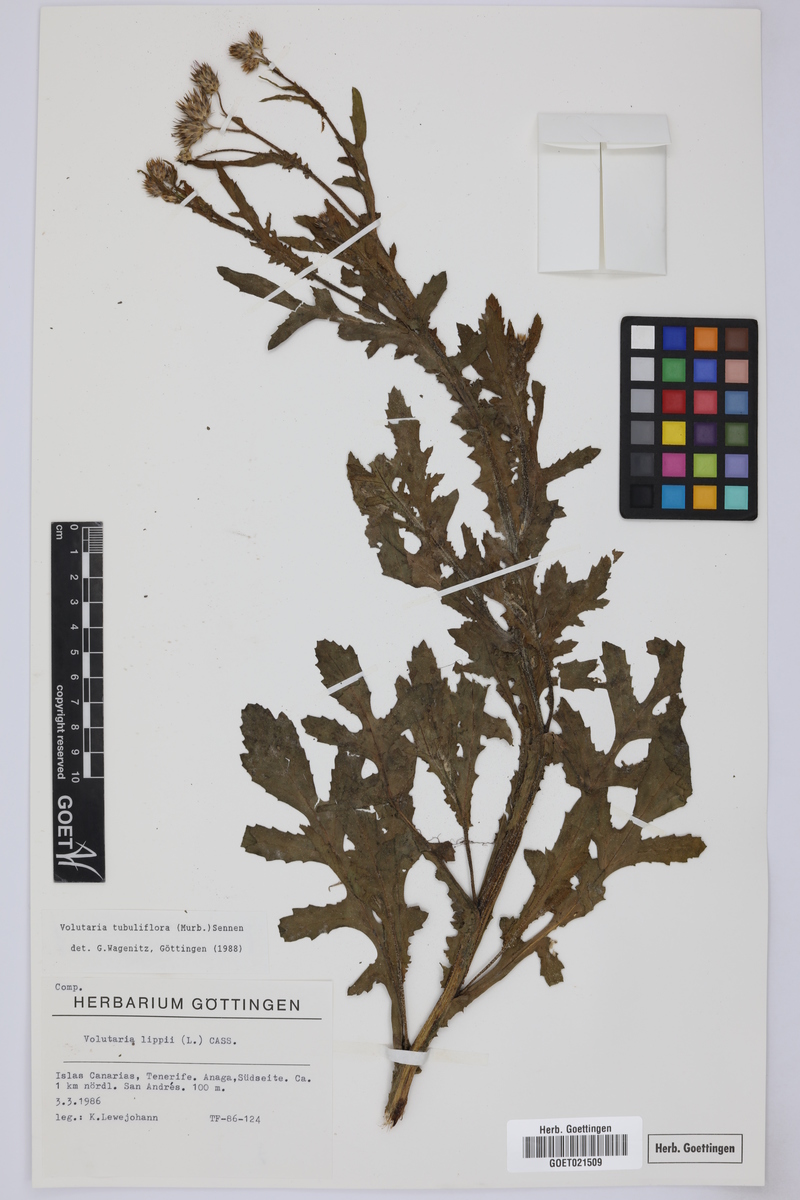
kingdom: Plantae
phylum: Tracheophyta
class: Magnoliopsida
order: Asterales
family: Asteraceae
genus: Volutaria
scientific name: Volutaria tubuliflora
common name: Desert knapweed
